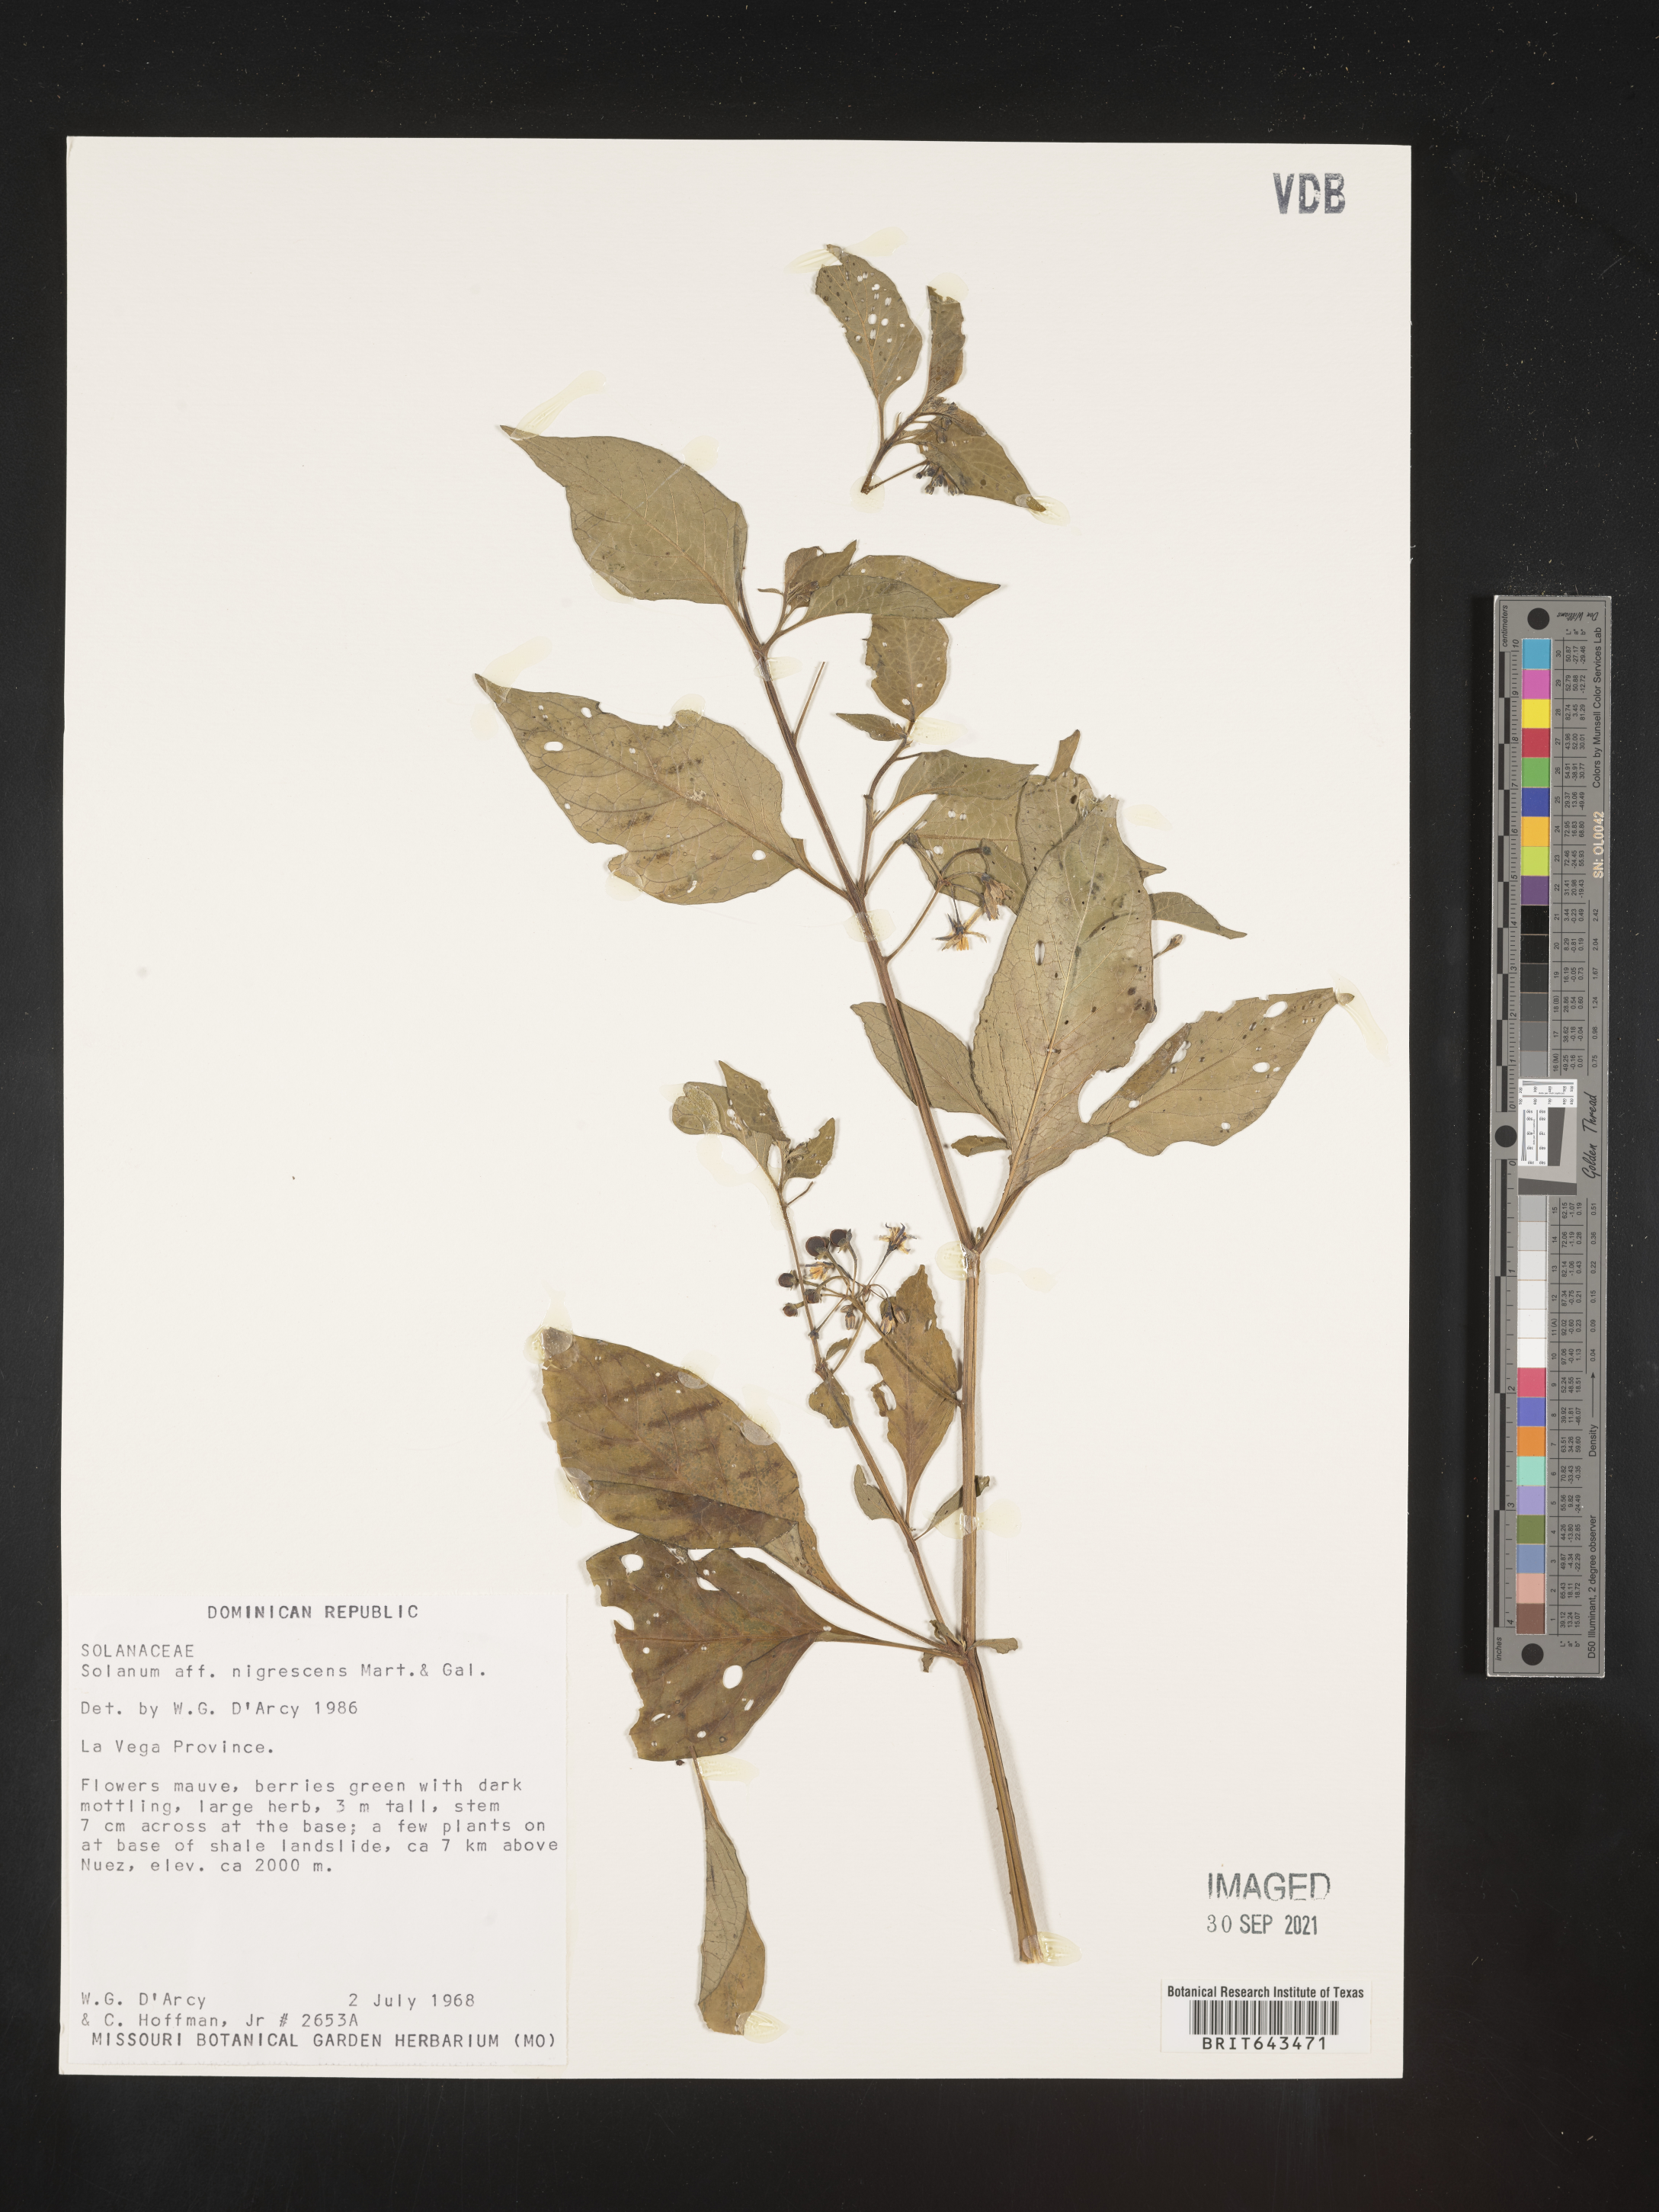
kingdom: Plantae
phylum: Tracheophyta
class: Magnoliopsida
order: Solanales
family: Solanaceae
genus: Solanum
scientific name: Solanum
